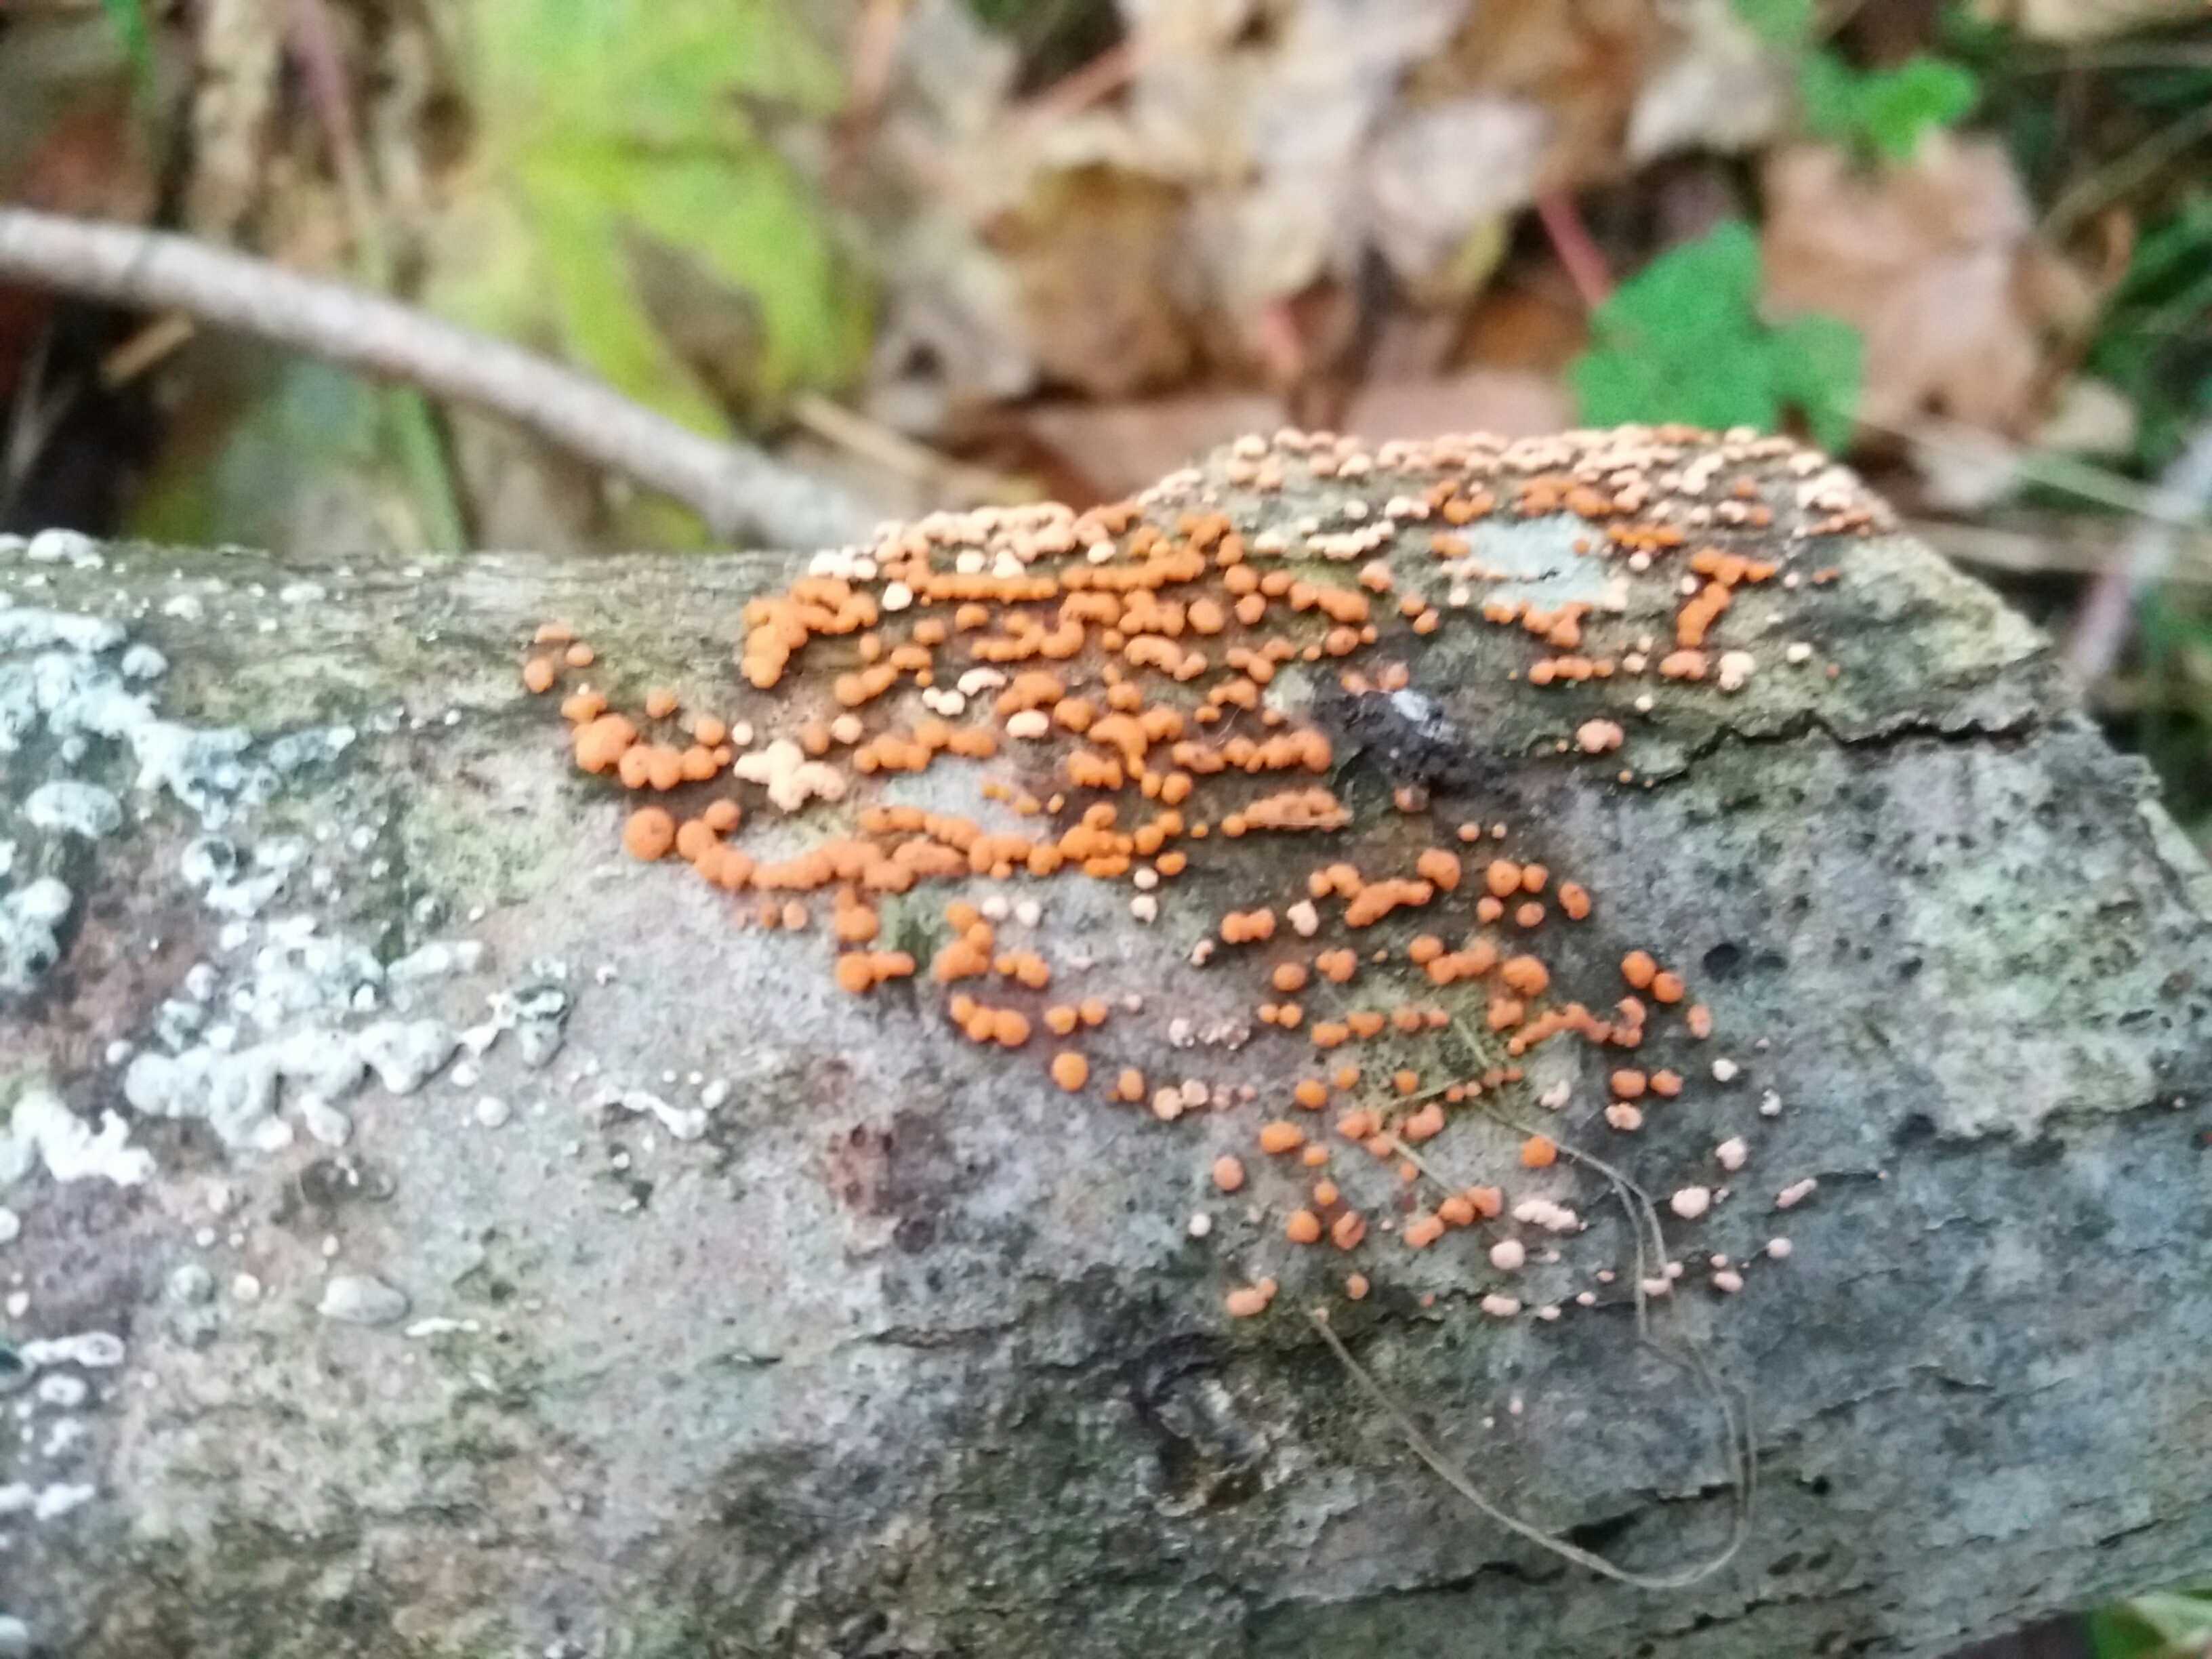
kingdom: Fungi
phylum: Ascomycota
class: Sordariomycetes
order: Hypocreales
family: Nectriaceae
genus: Nectria
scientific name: Nectria cinnabarina
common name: almindelig cinnobersvamp
